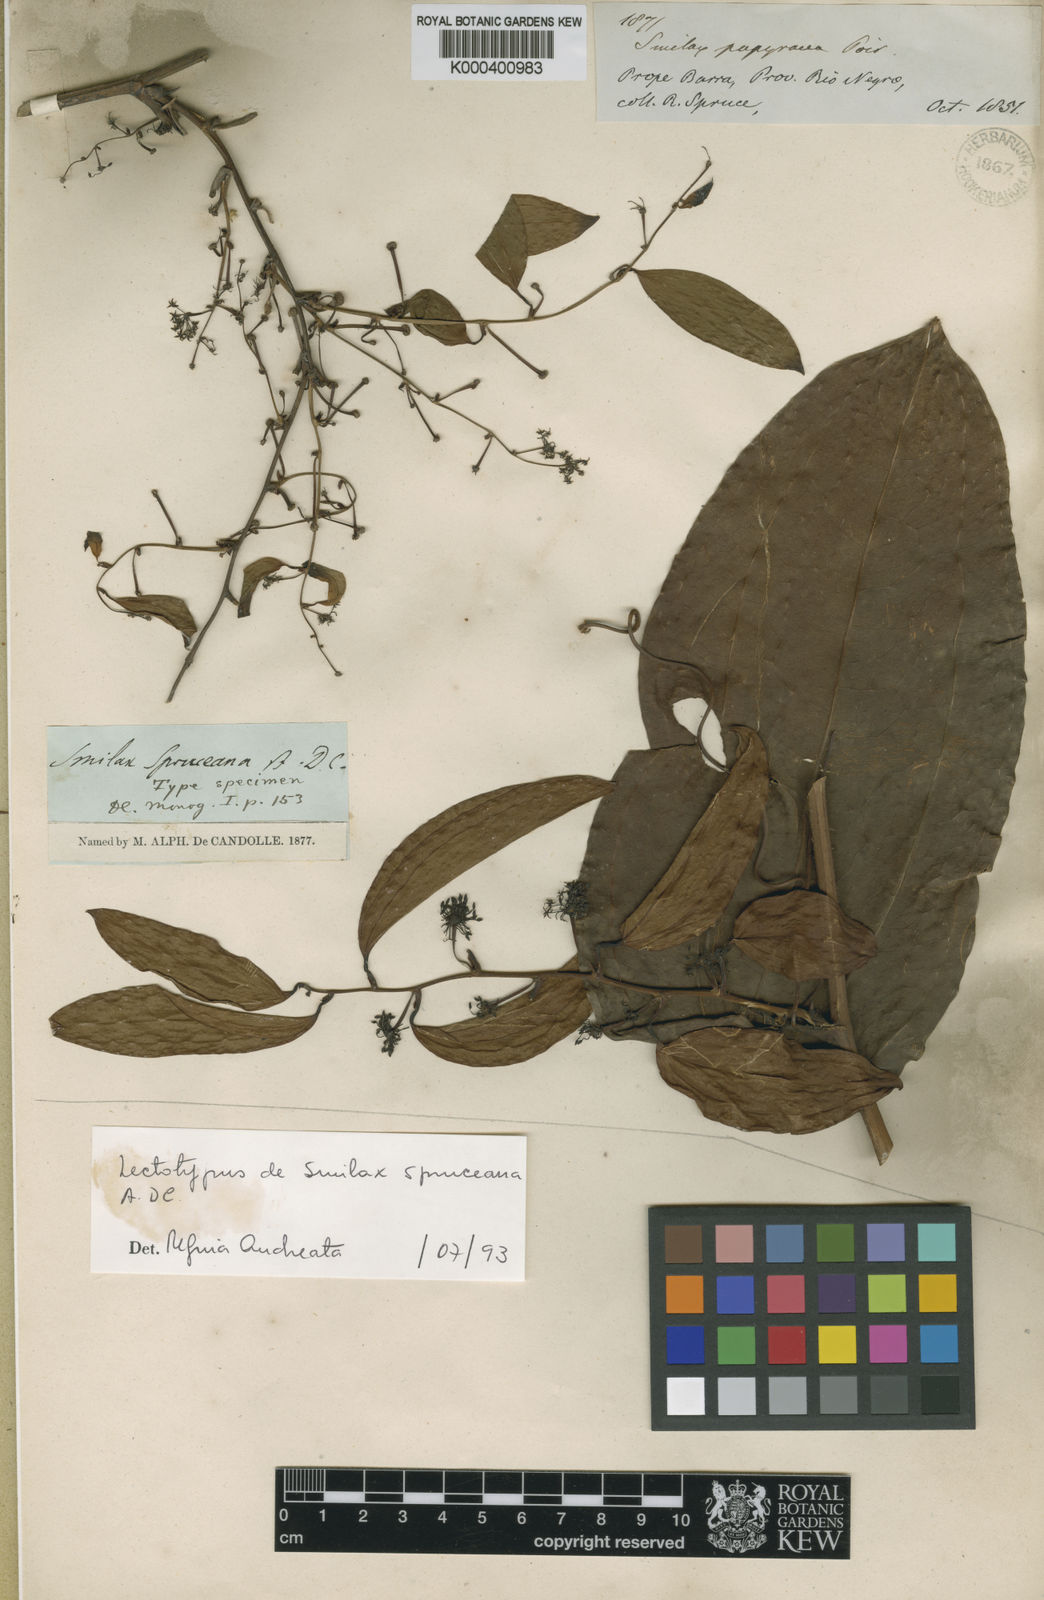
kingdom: Plantae
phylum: Tracheophyta
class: Liliopsida
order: Liliales
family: Smilacaceae
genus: Smilax
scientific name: Smilax spruceana
